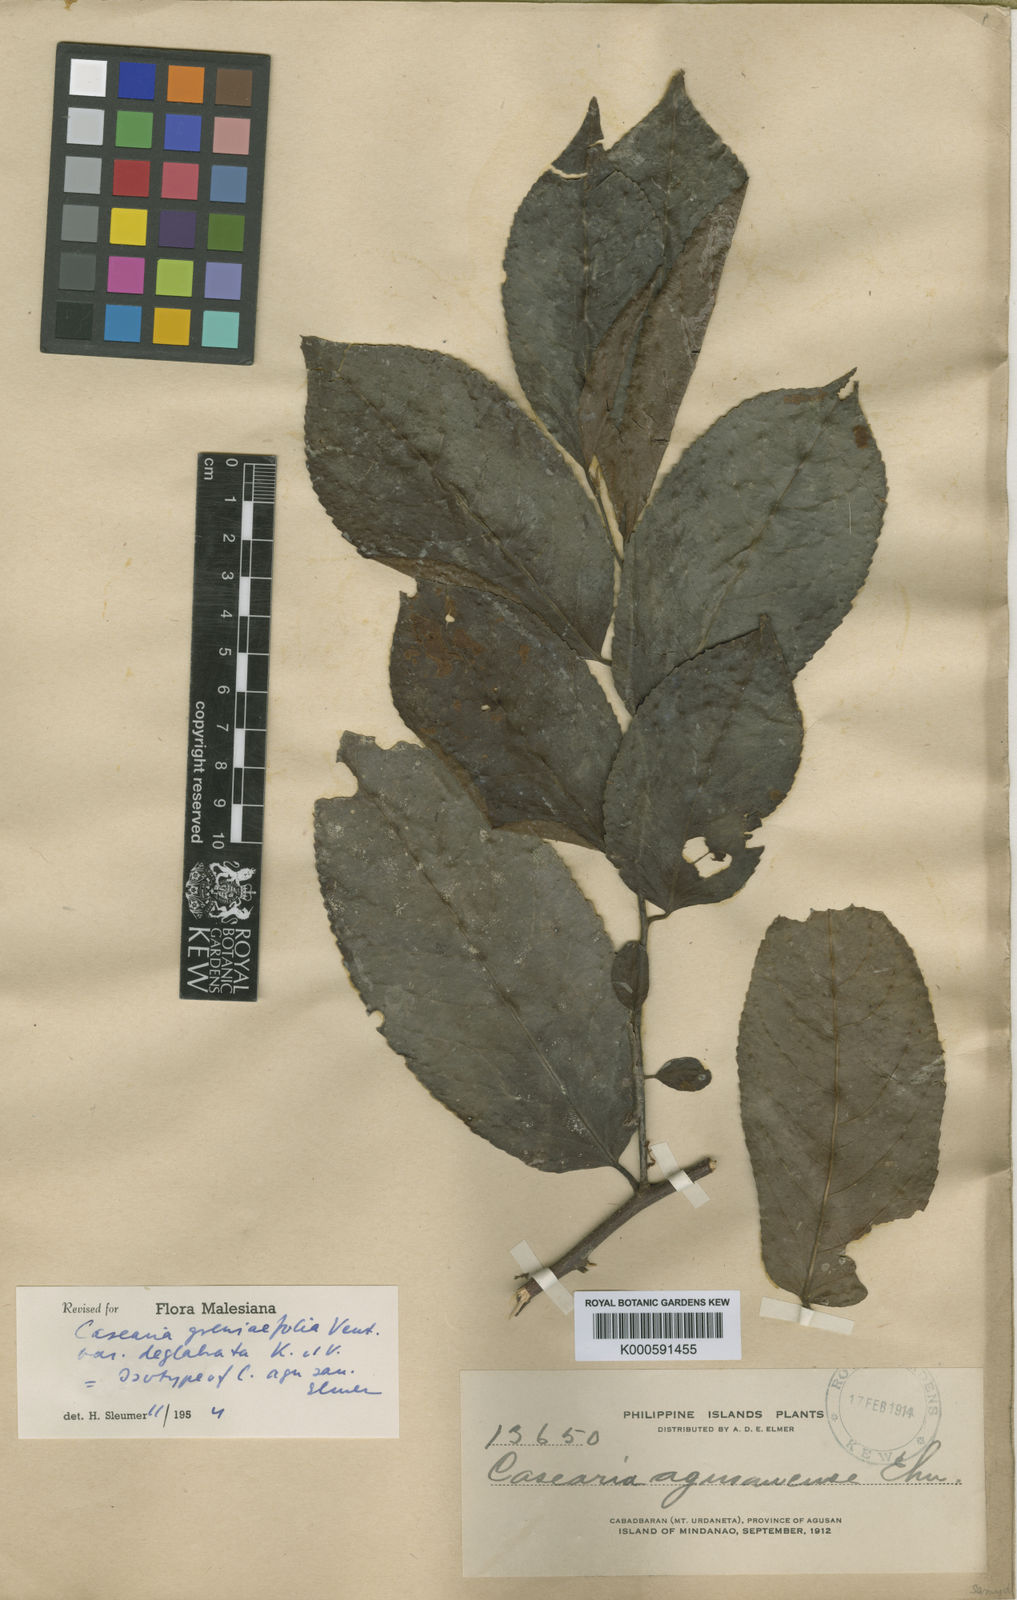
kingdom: Plantae
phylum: Tracheophyta
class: Magnoliopsida
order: Malpighiales
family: Salicaceae
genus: Casearia
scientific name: Casearia grewiifolia
